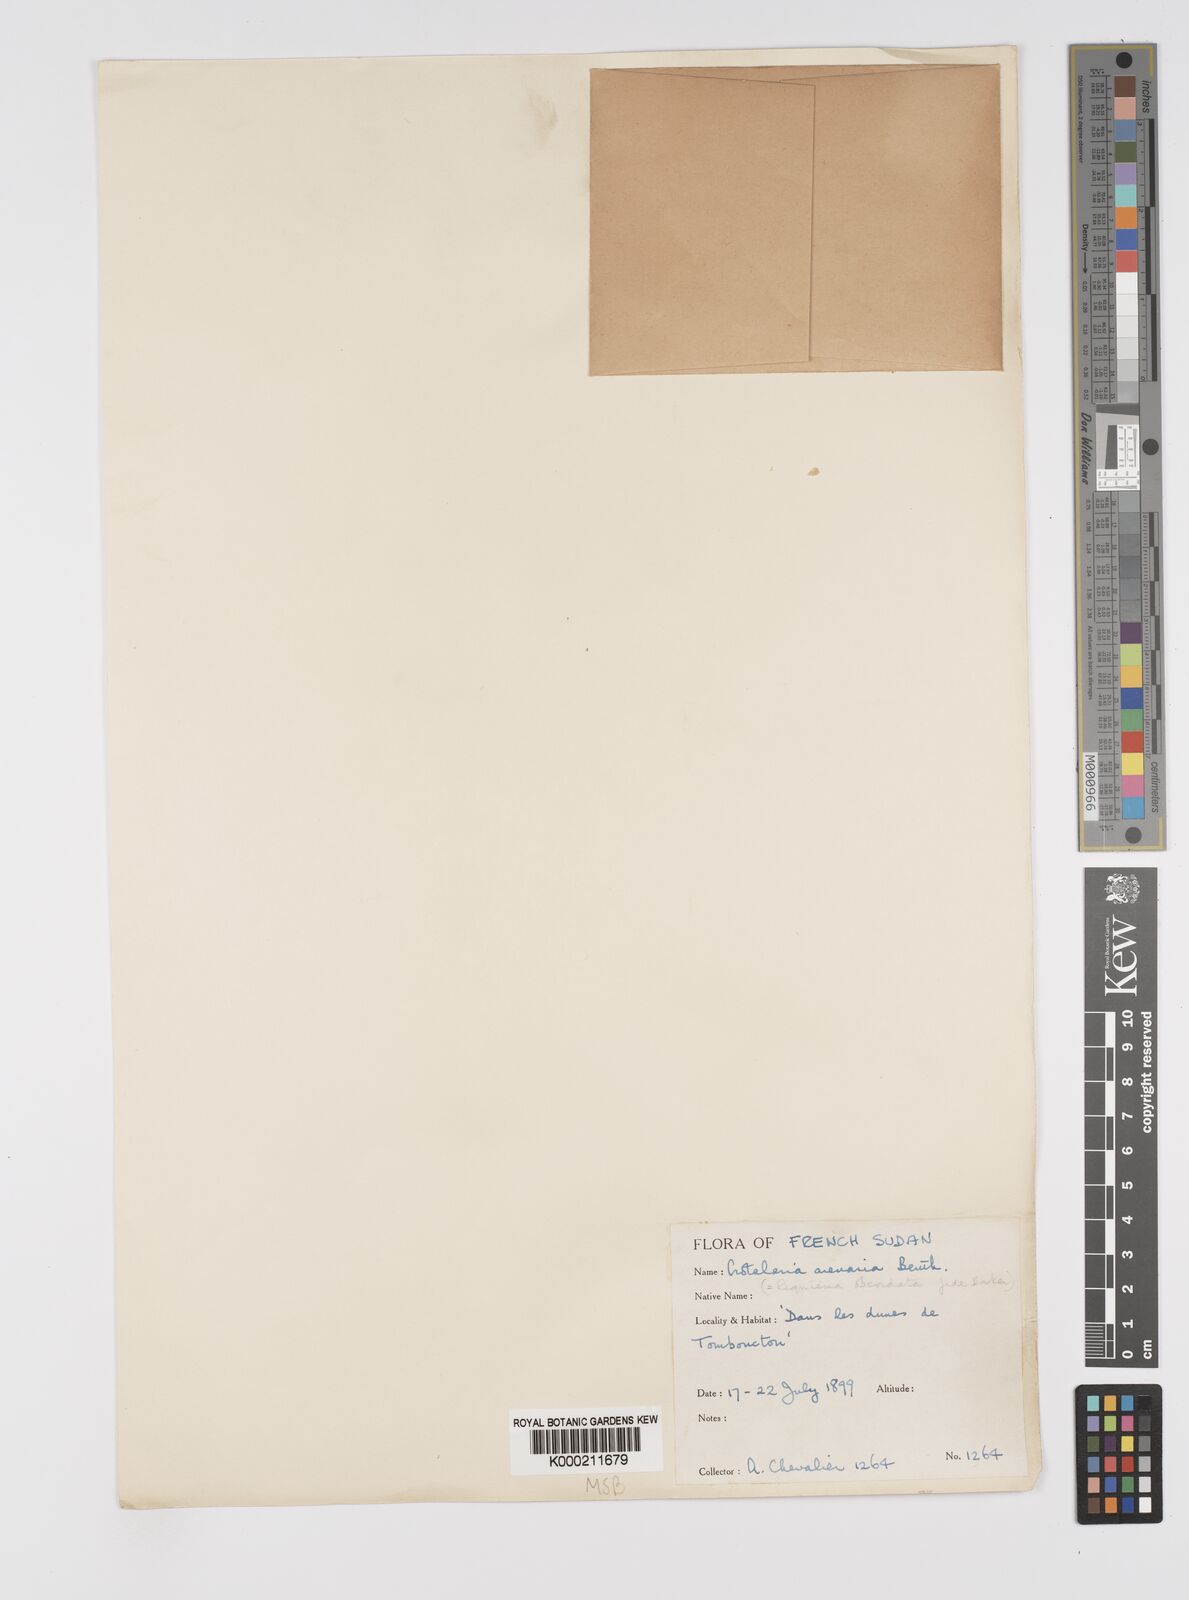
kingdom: Plantae
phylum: Tracheophyta
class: Magnoliopsida
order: Fabales
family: Fabaceae
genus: Crotalaria
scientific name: Crotalaria arenaria
